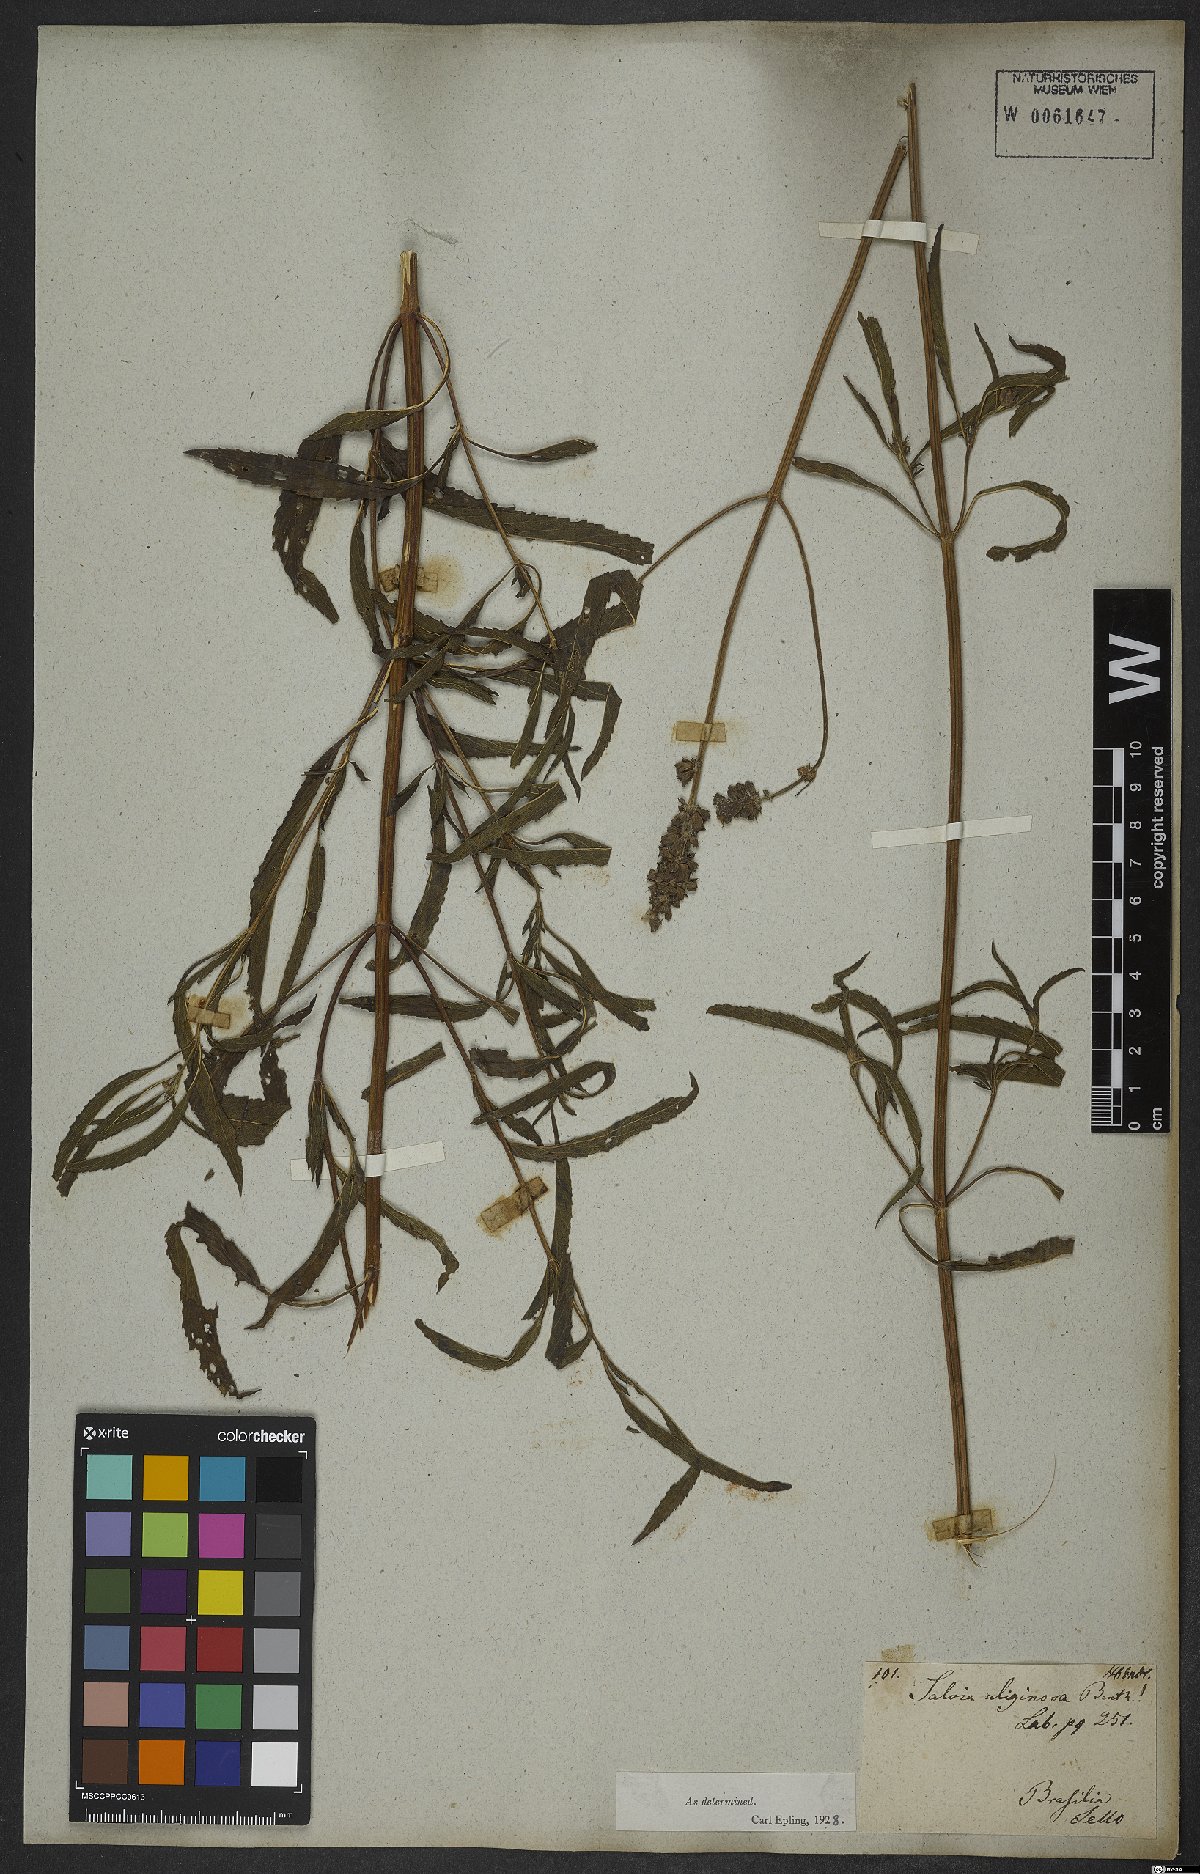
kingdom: Plantae
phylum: Tracheophyta
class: Magnoliopsida
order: Lamiales
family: Lamiaceae
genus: Salvia
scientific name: Salvia uliginosa
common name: Bog sage
